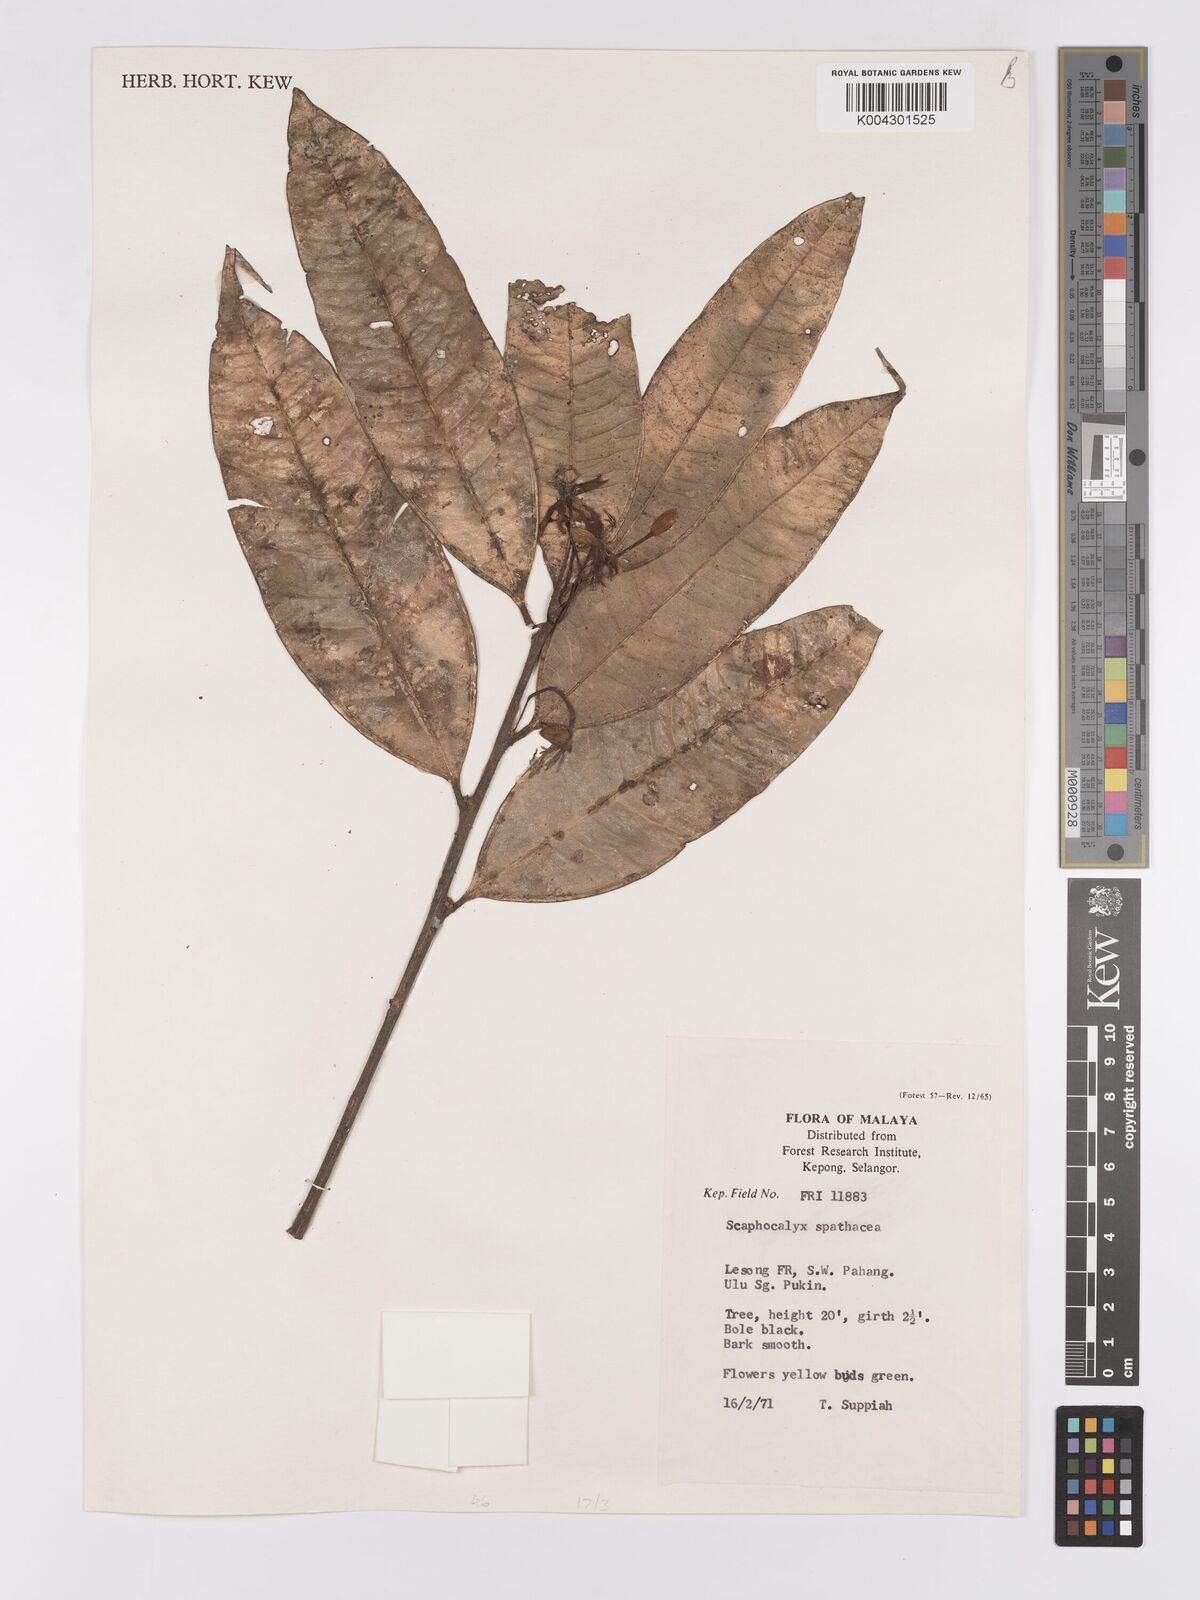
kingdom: Plantae
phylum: Tracheophyta
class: Magnoliopsida
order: Malpighiales
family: Achariaceae
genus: Scaphocalyx
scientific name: Scaphocalyx spathacea
